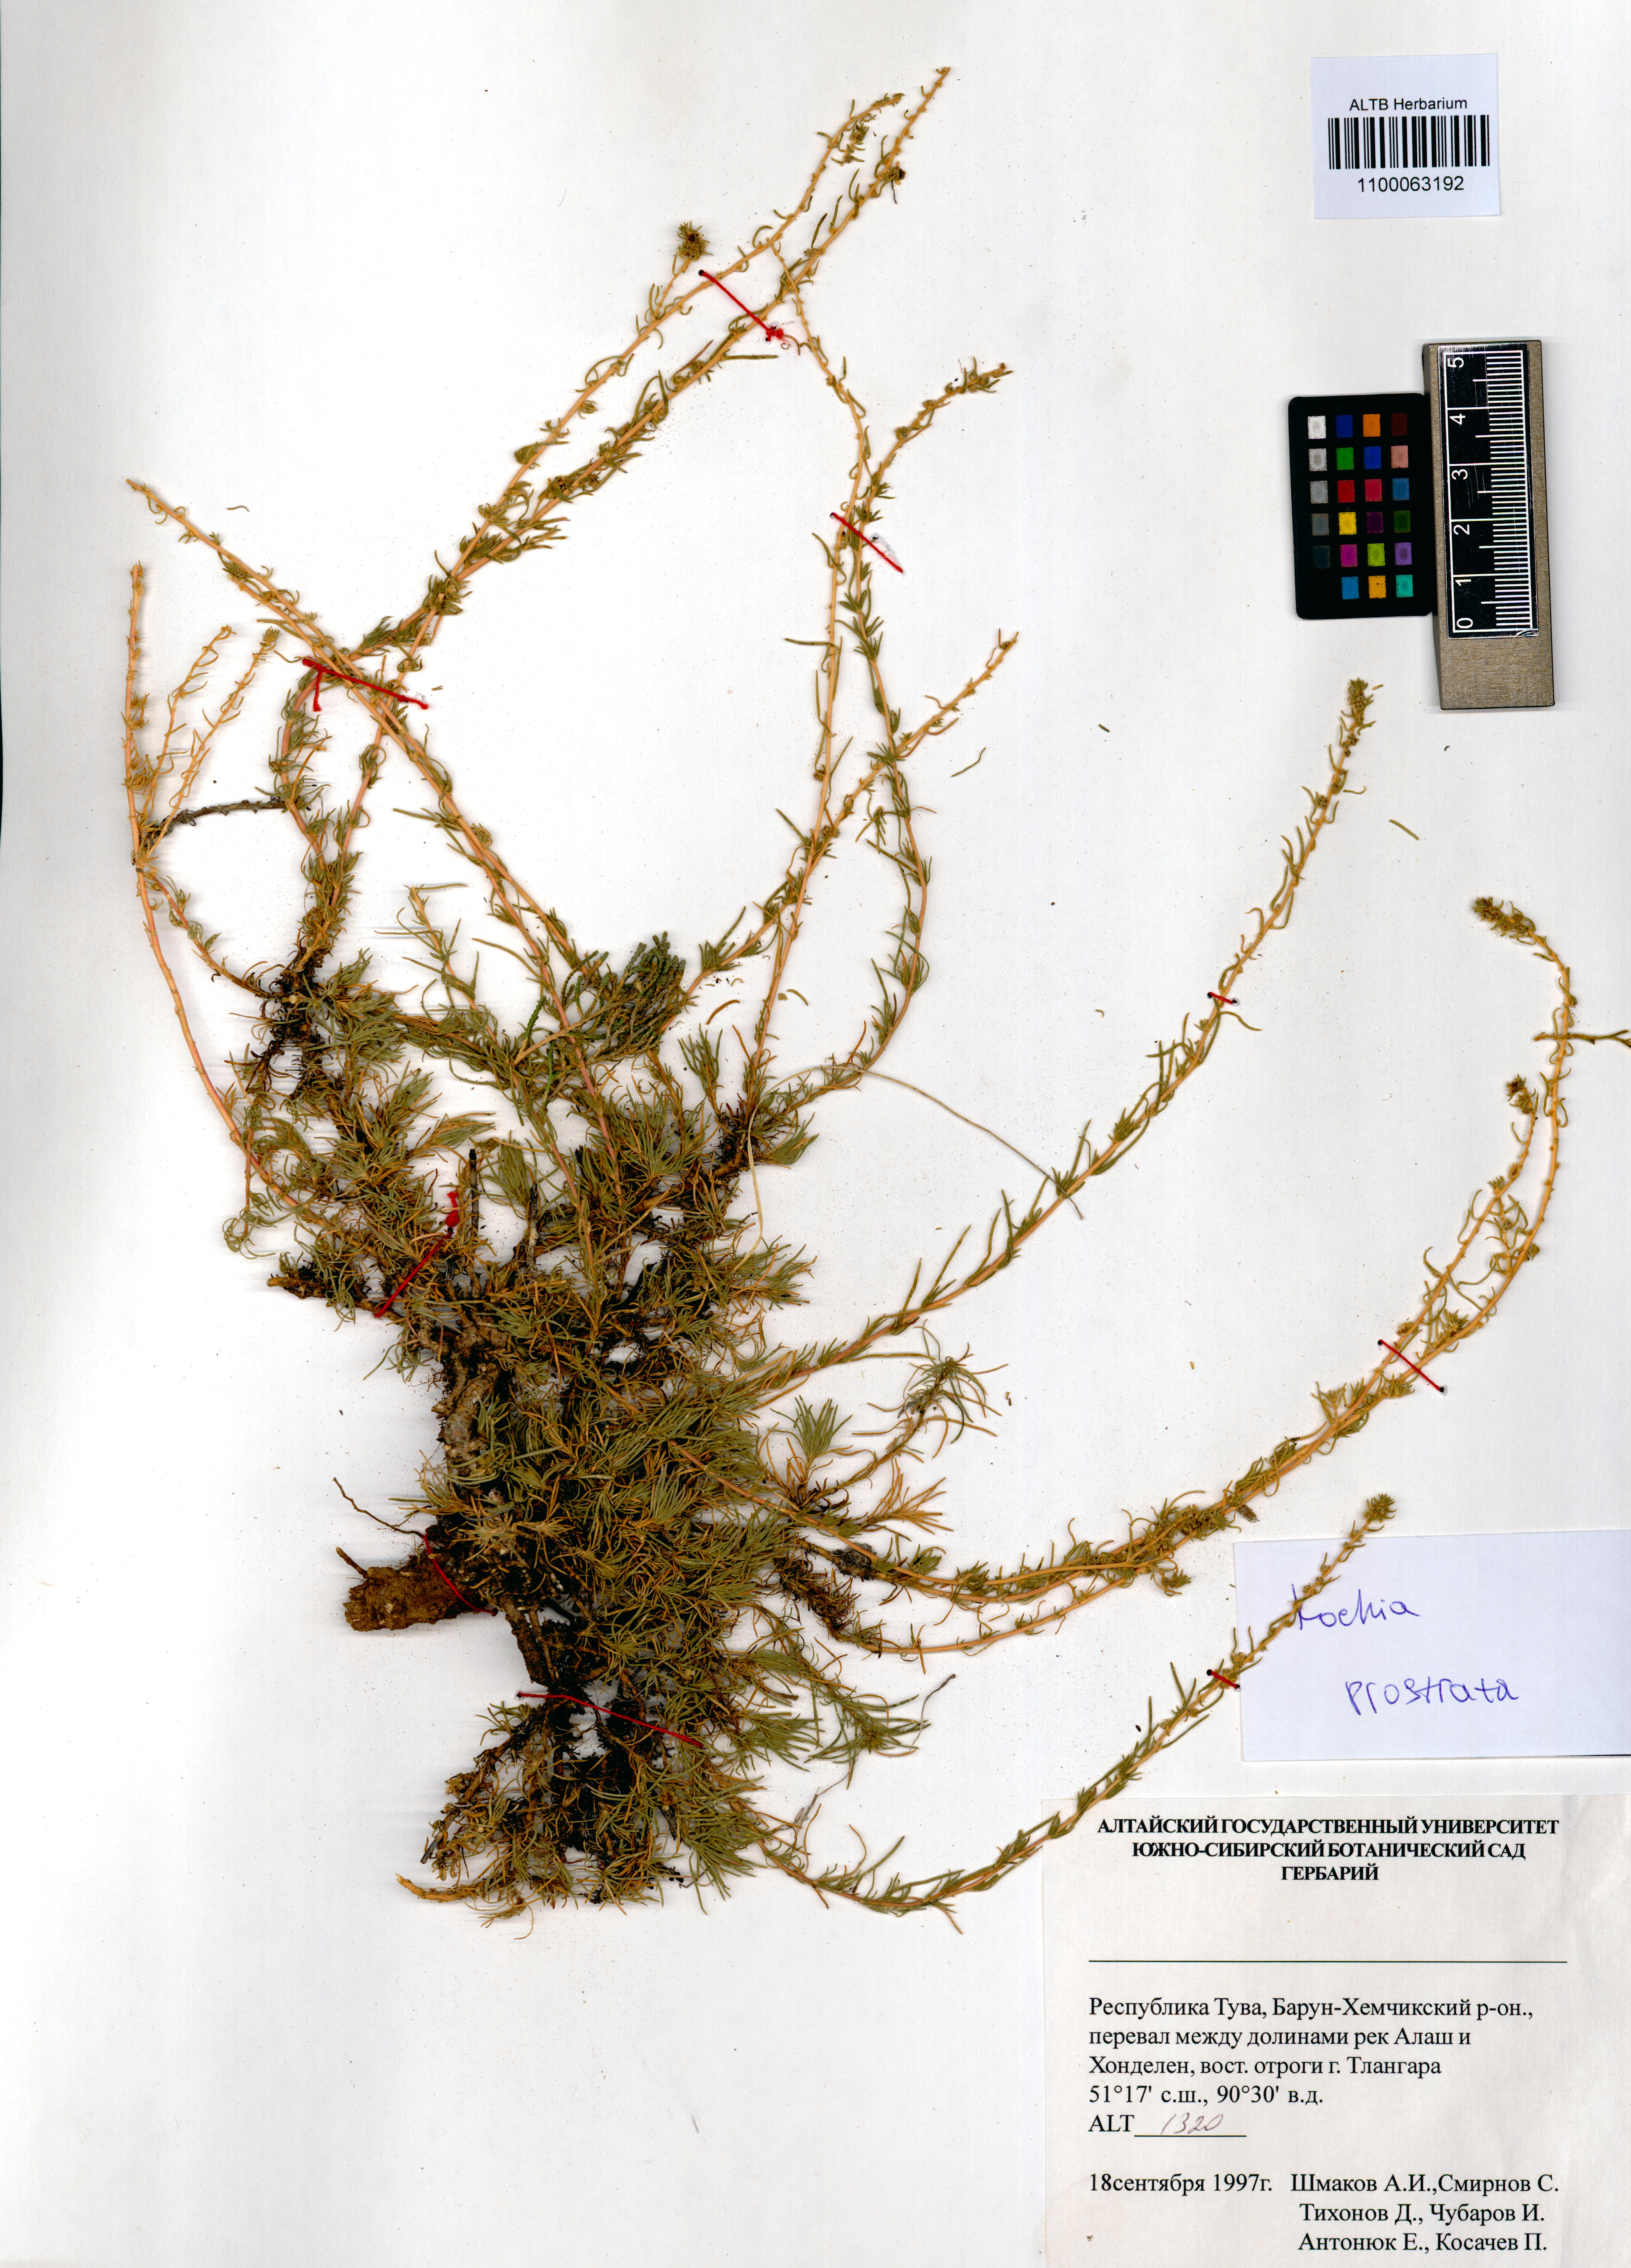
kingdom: Plantae
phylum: Tracheophyta
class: Magnoliopsida
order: Caryophyllales
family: Amaranthaceae
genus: Bassia
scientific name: Bassia prostrata
